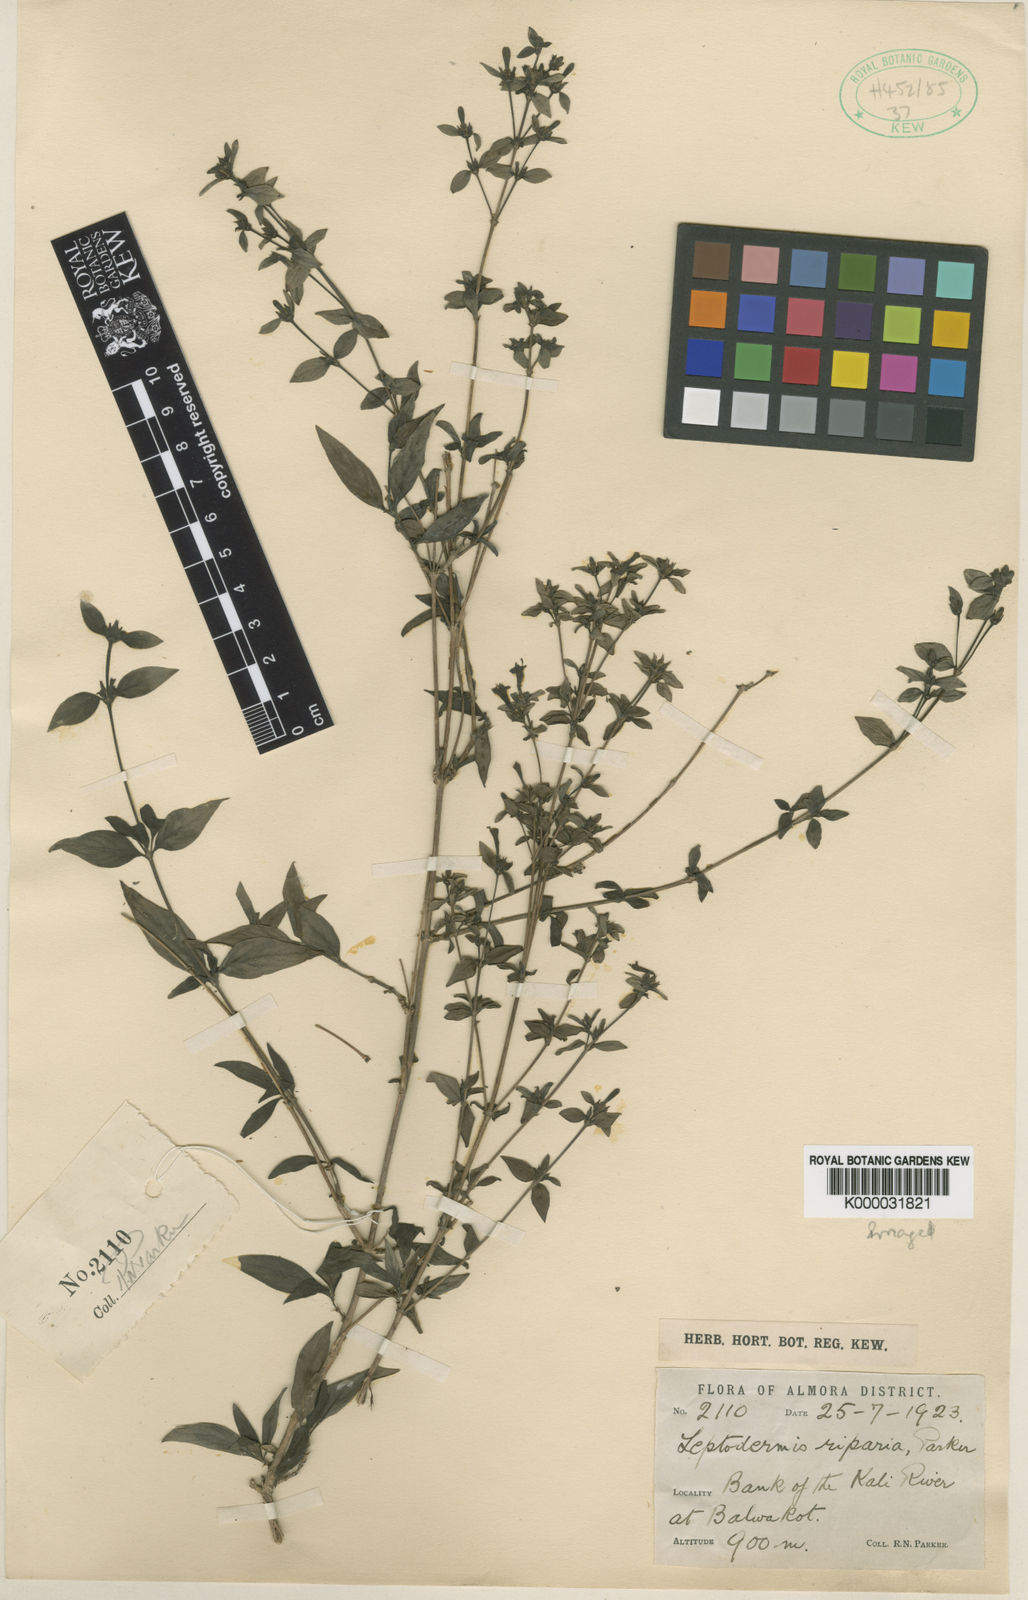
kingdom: Plantae
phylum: Tracheophyta
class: Magnoliopsida
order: Gentianales
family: Rubiaceae
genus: Leptodermis
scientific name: Leptodermis parkeri
